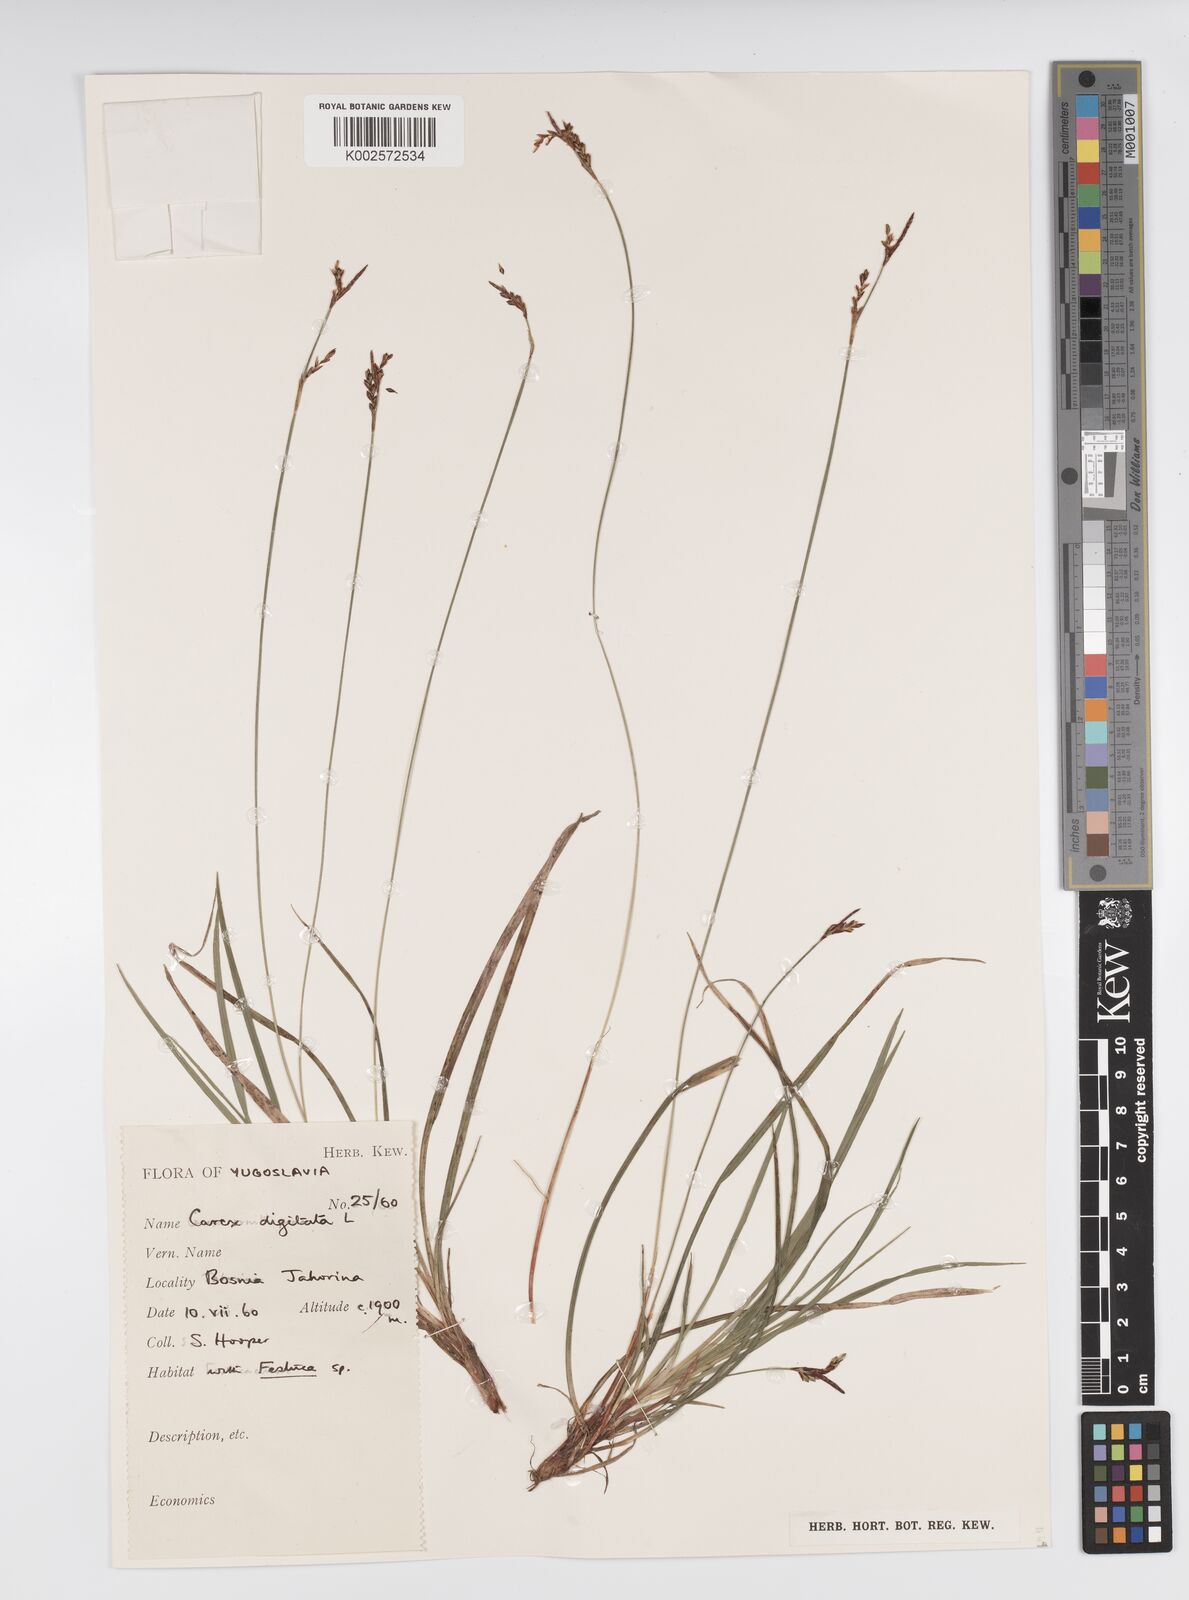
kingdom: Plantae
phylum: Tracheophyta
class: Liliopsida
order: Poales
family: Cyperaceae
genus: Carex
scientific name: Carex digitata
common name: Fingered sedge
